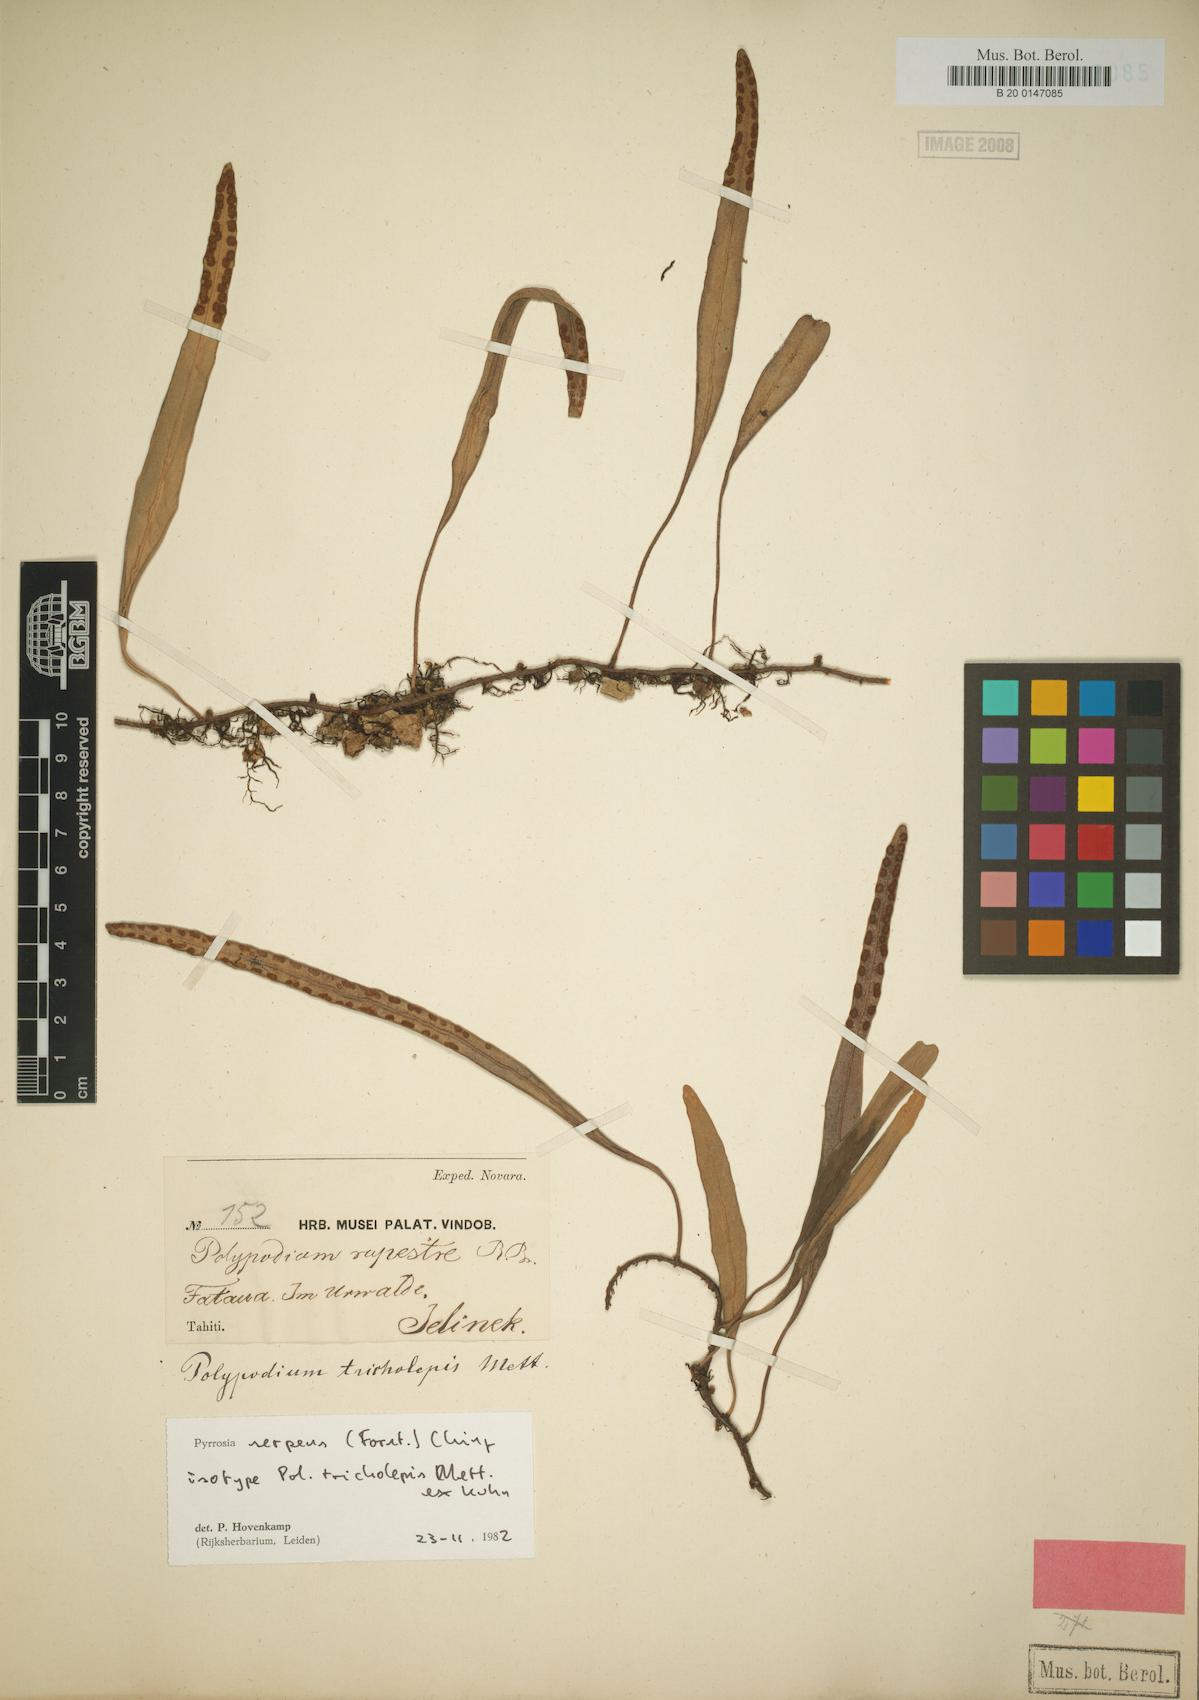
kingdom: Plantae
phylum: Tracheophyta
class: Polypodiopsida
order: Polypodiales
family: Polypodiaceae
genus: Pyrrosia
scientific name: Pyrrosia serpens
